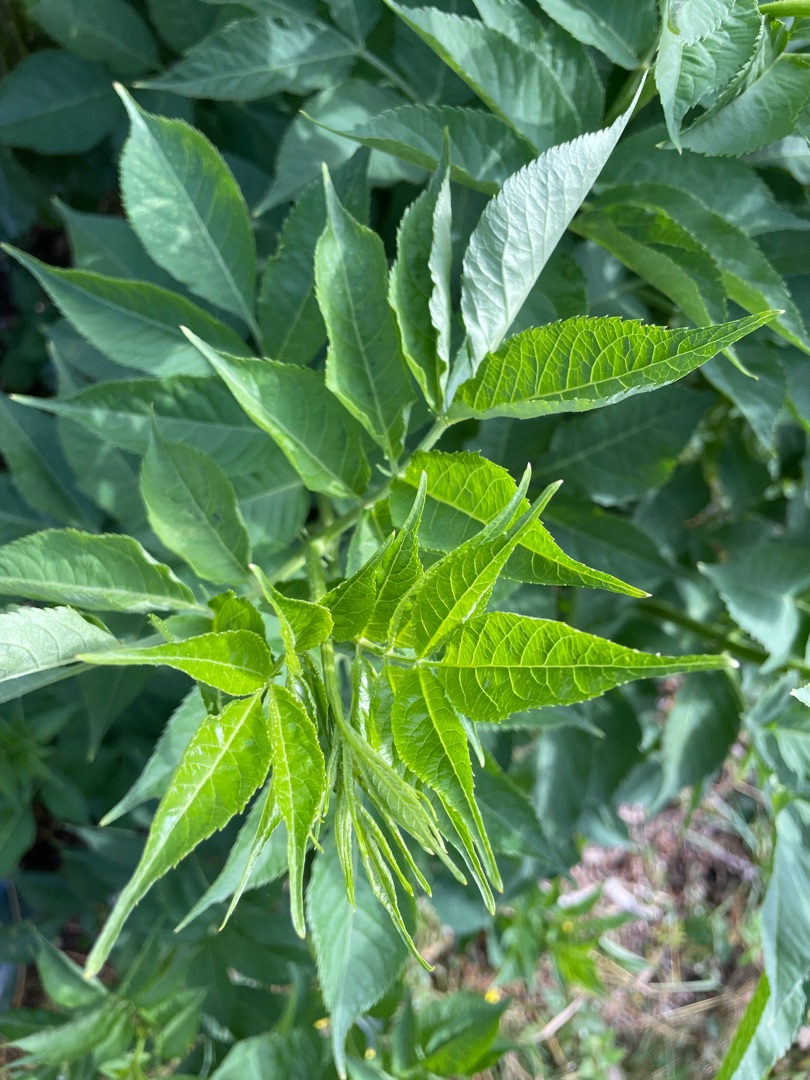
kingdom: Plantae
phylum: Tracheophyta
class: Magnoliopsida
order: Dipsacales
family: Viburnaceae
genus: Sambucus
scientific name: Sambucus nigra
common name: Almindelig hyld
